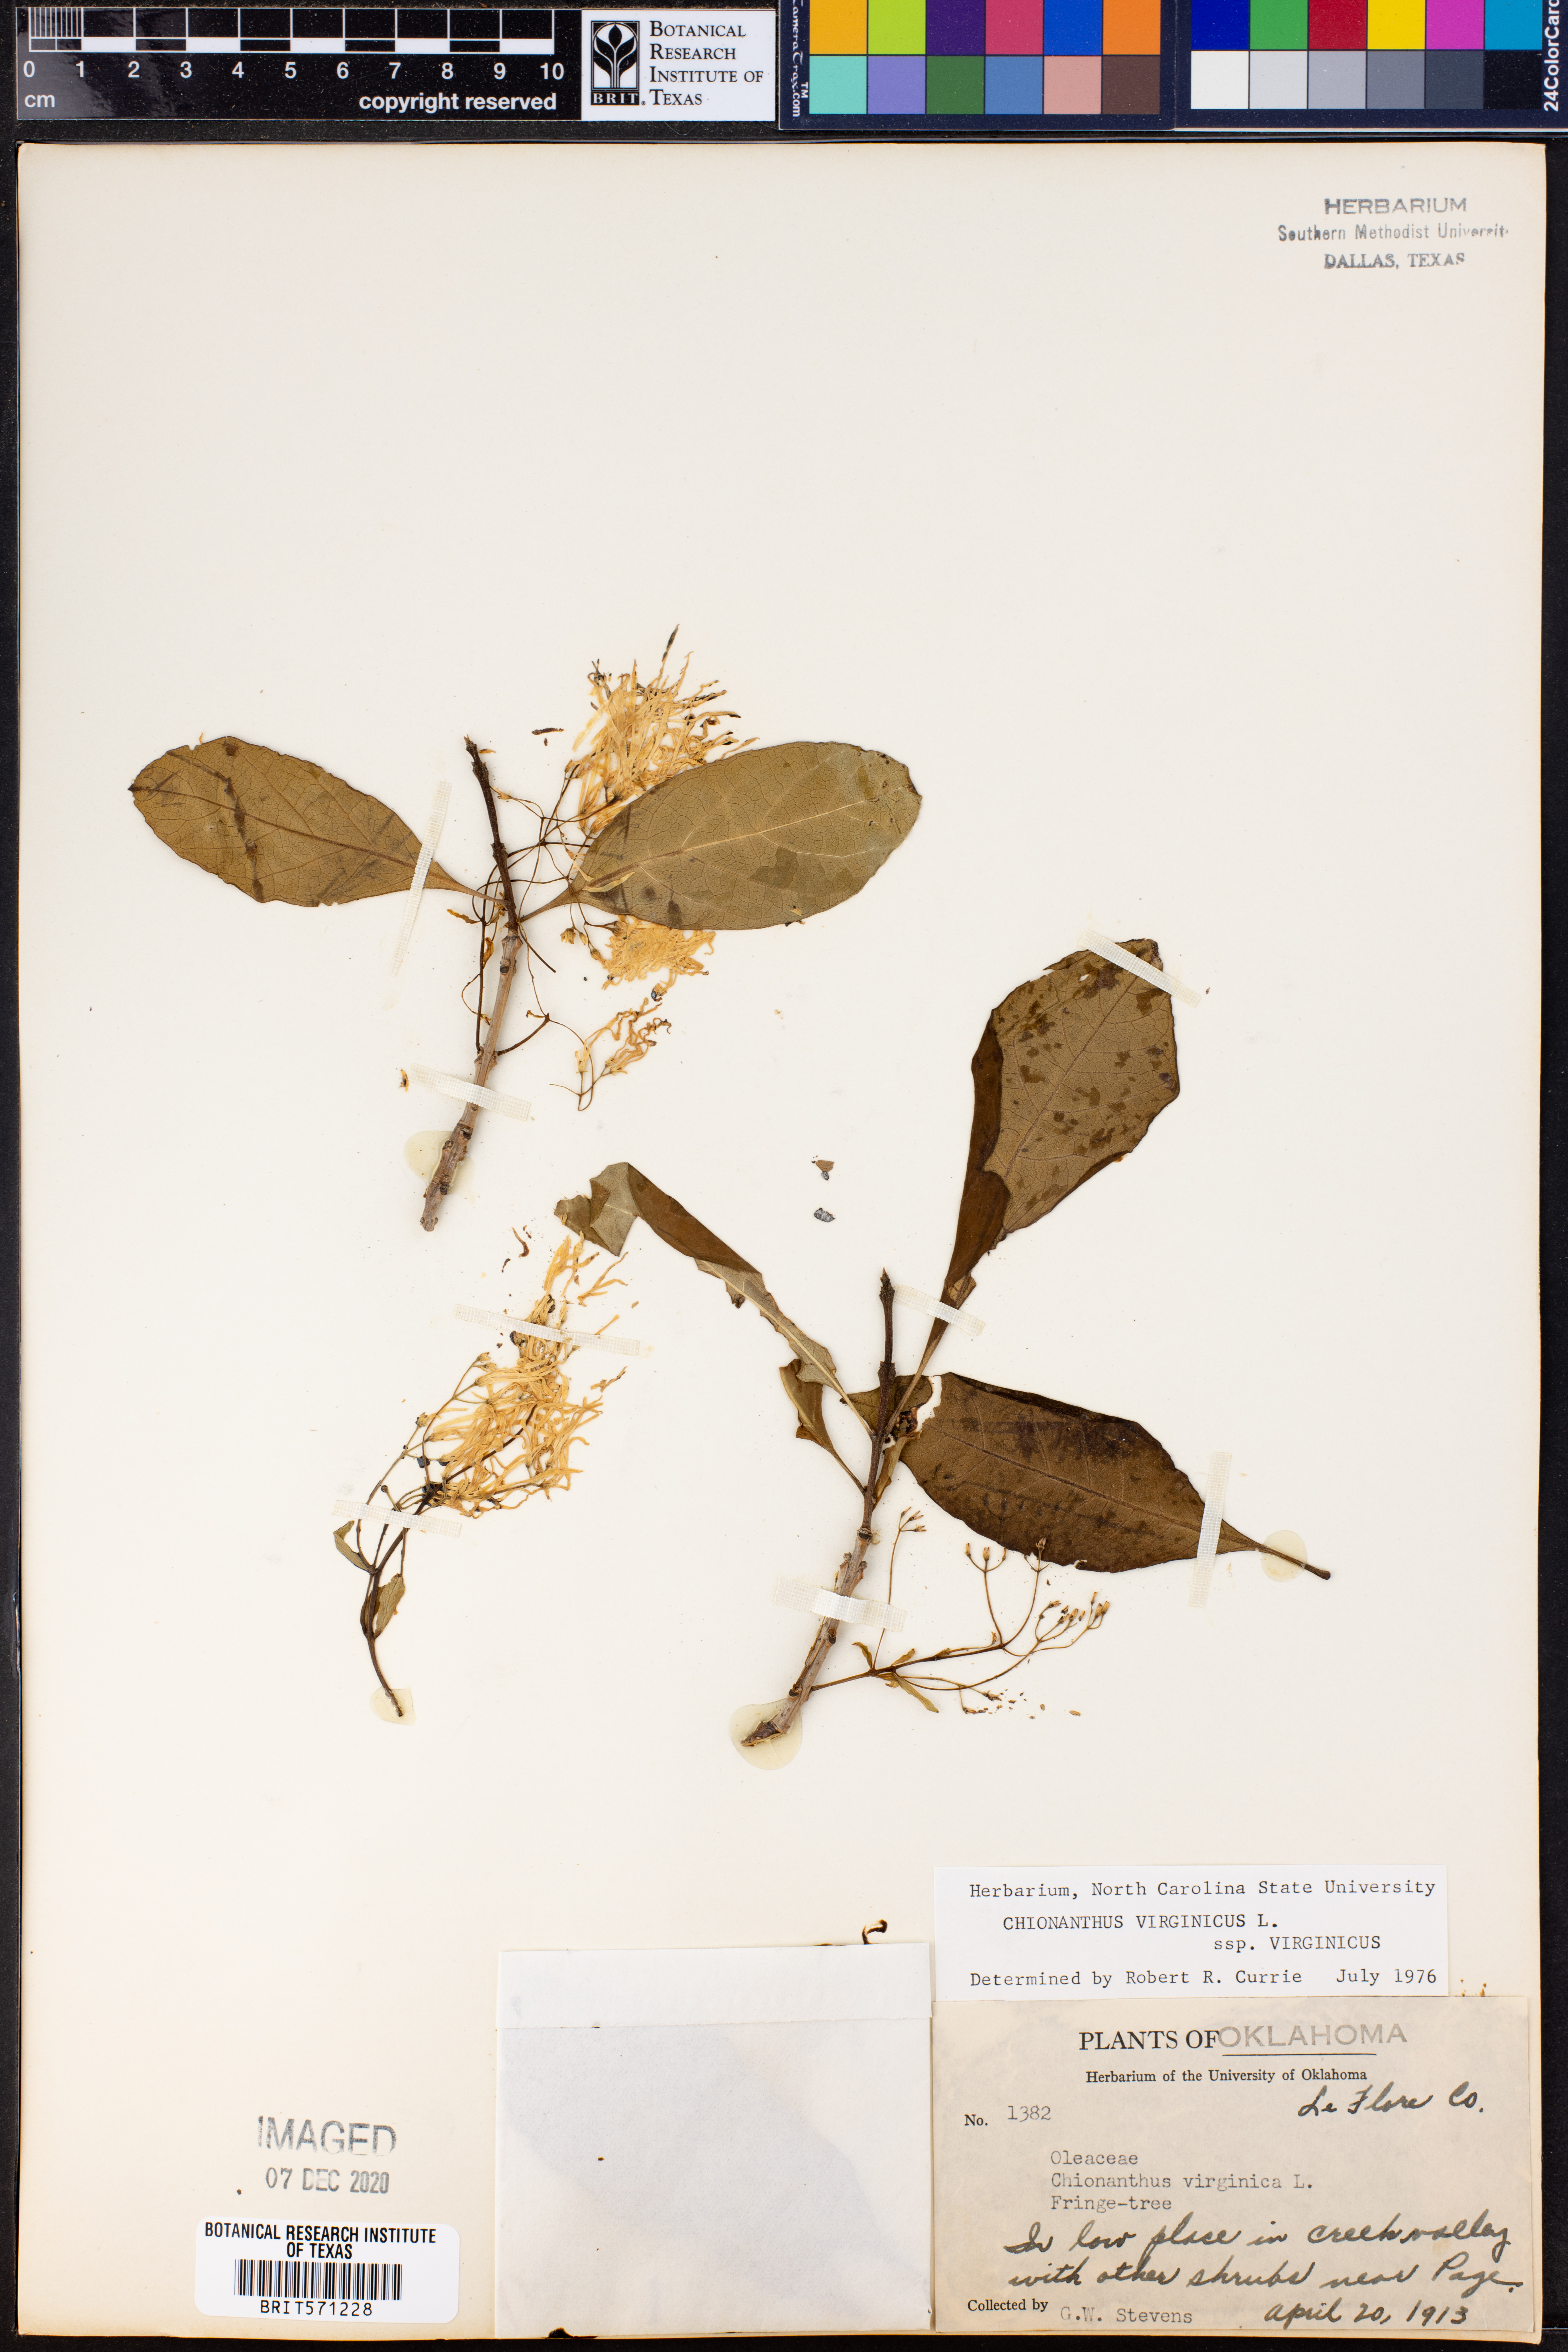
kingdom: Plantae
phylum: Tracheophyta
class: Magnoliopsida
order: Lamiales
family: Oleaceae
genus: Chionanthus
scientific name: Chionanthus virginicus
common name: American fringetree
